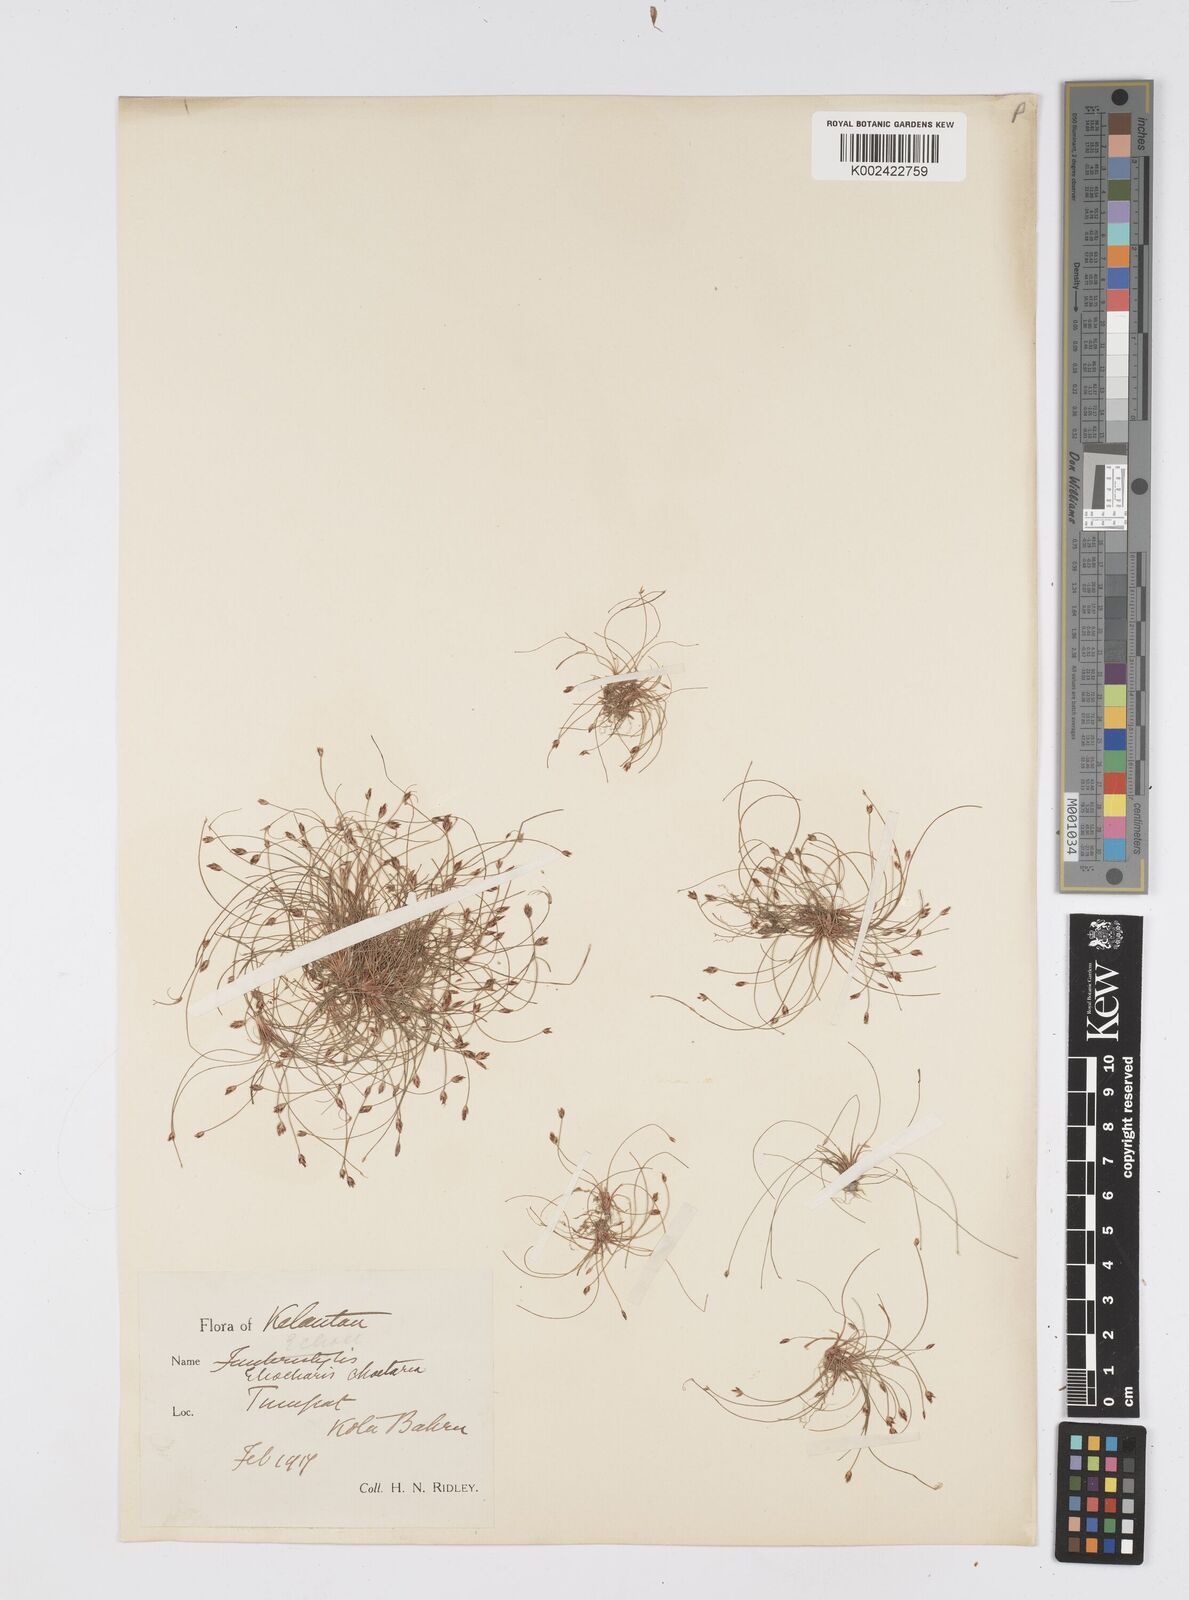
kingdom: Plantae
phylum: Tracheophyta
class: Liliopsida
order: Poales
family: Cyperaceae
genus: Eleocharis
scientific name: Eleocharis retroflexa
